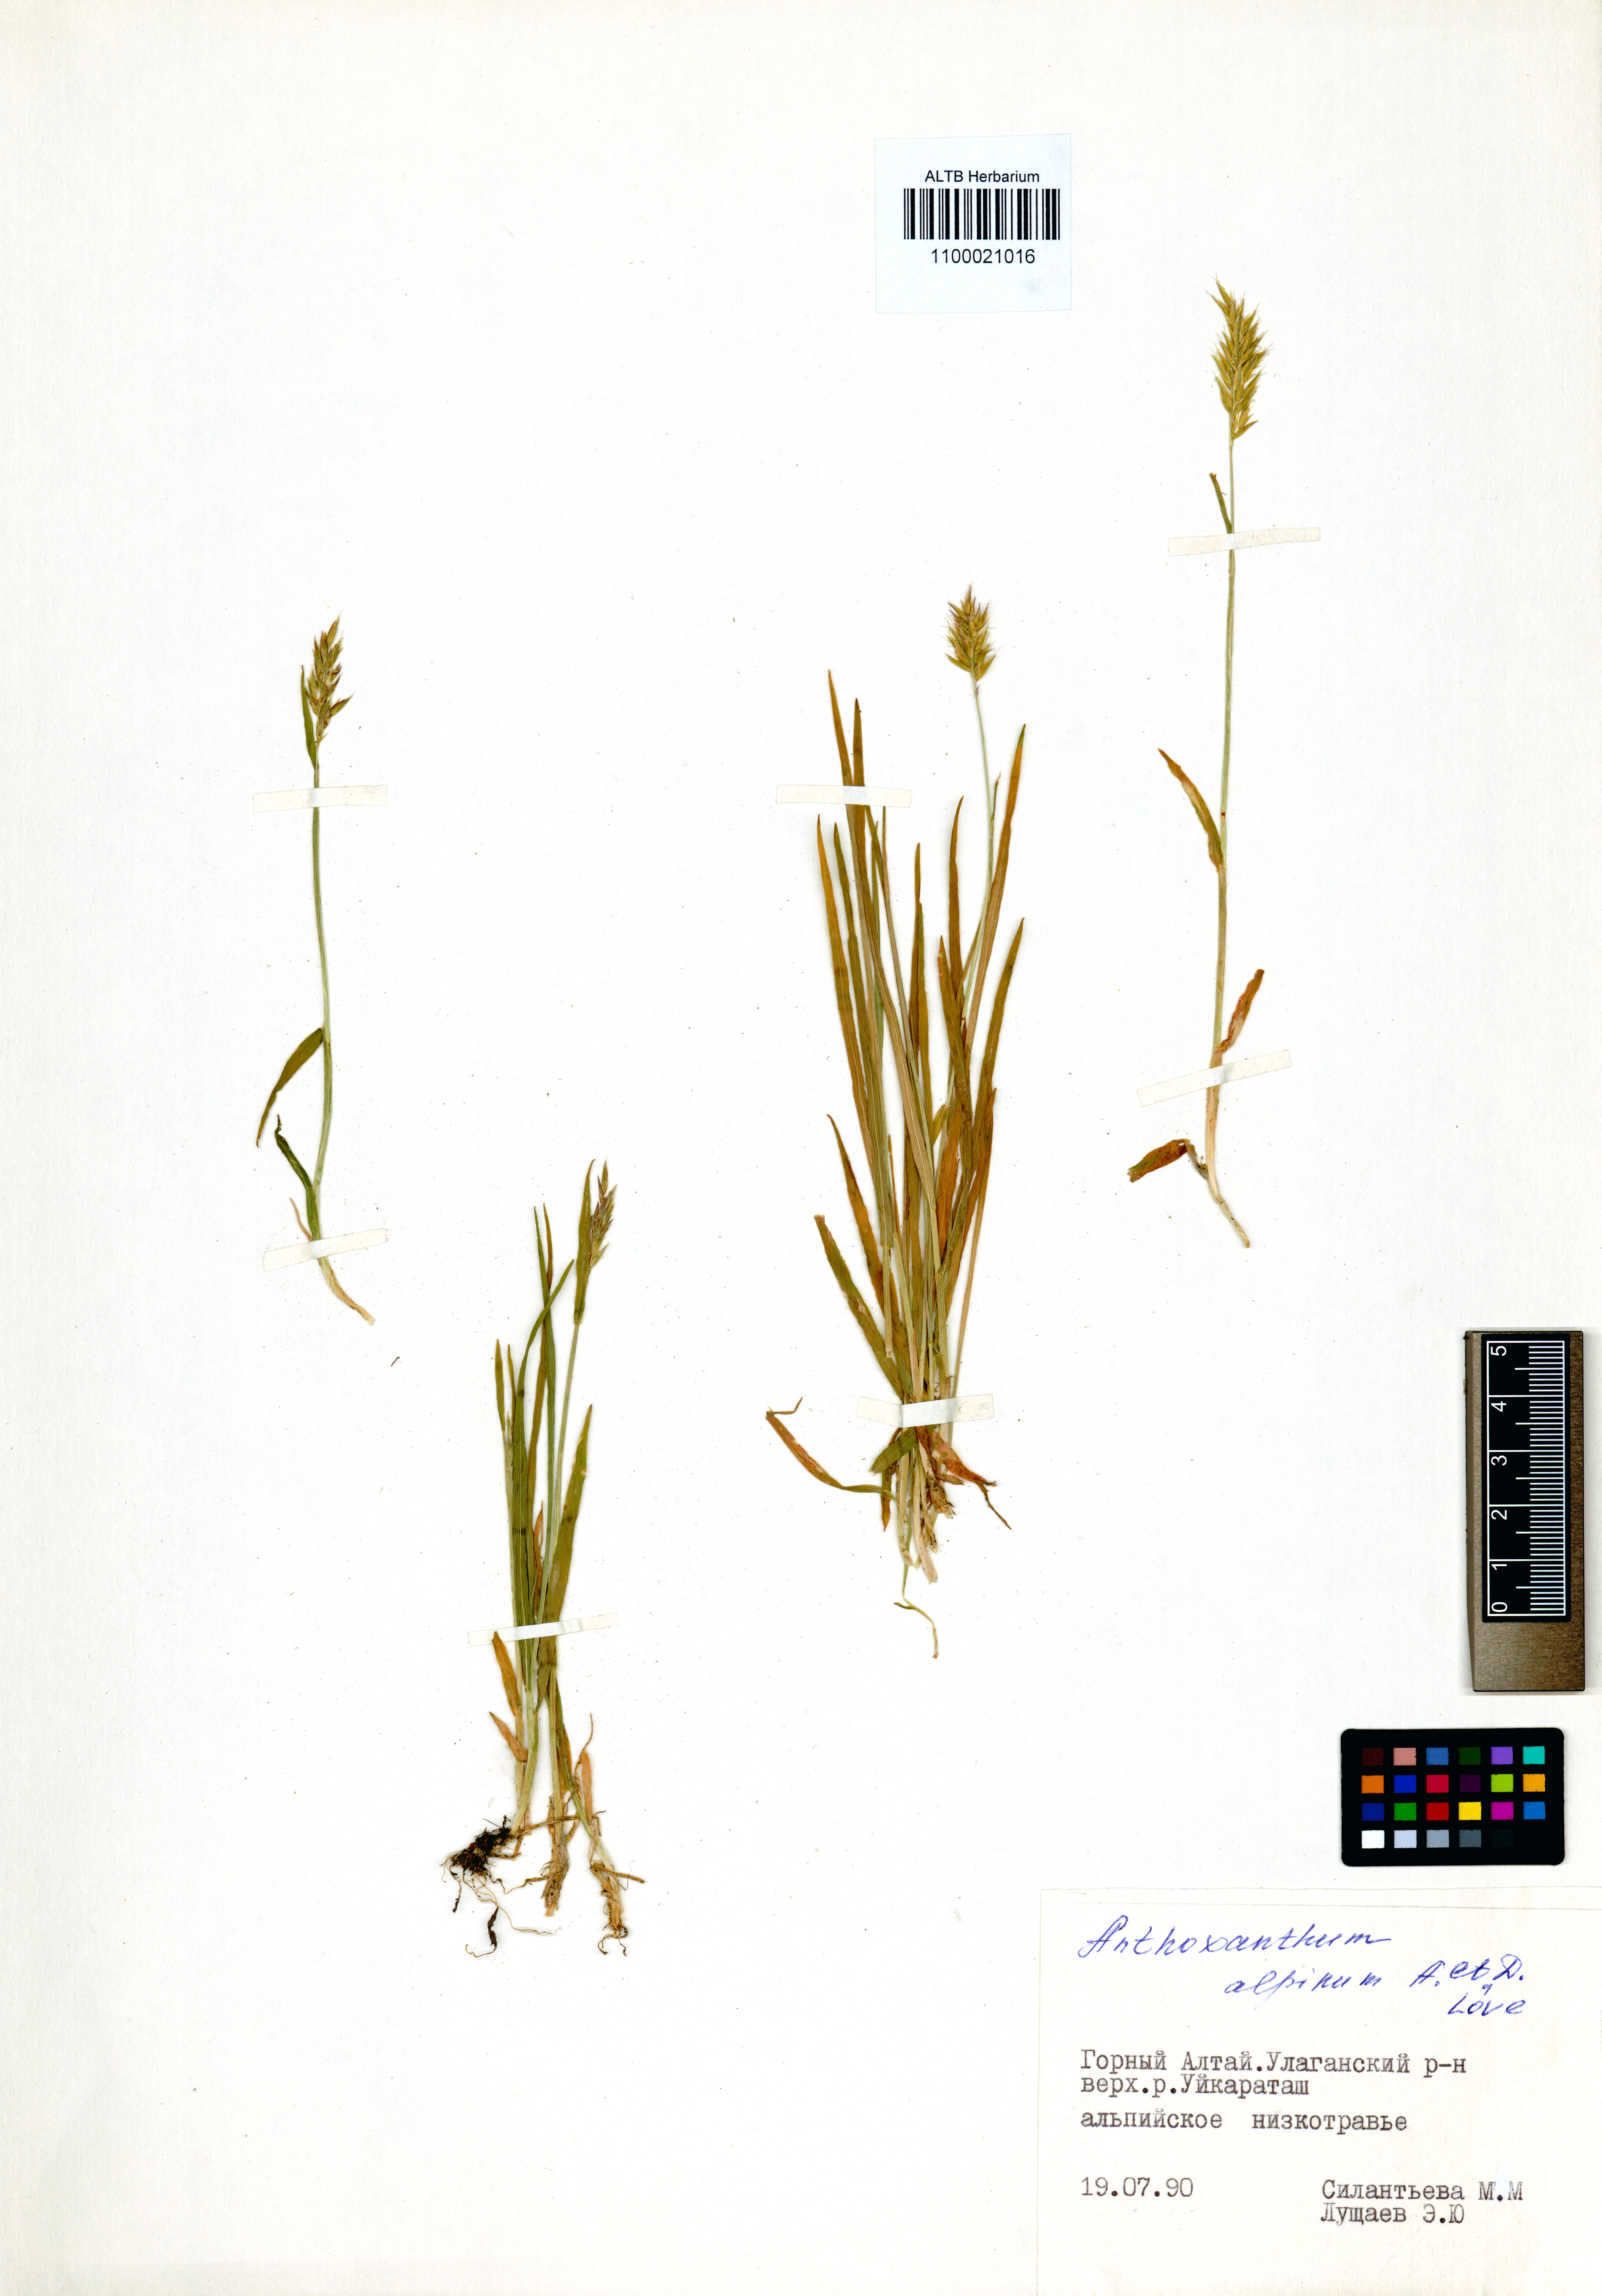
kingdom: Plantae
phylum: Tracheophyta
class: Liliopsida
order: Poales
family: Poaceae
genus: Anthoxanthum
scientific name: Anthoxanthum nipponicum
